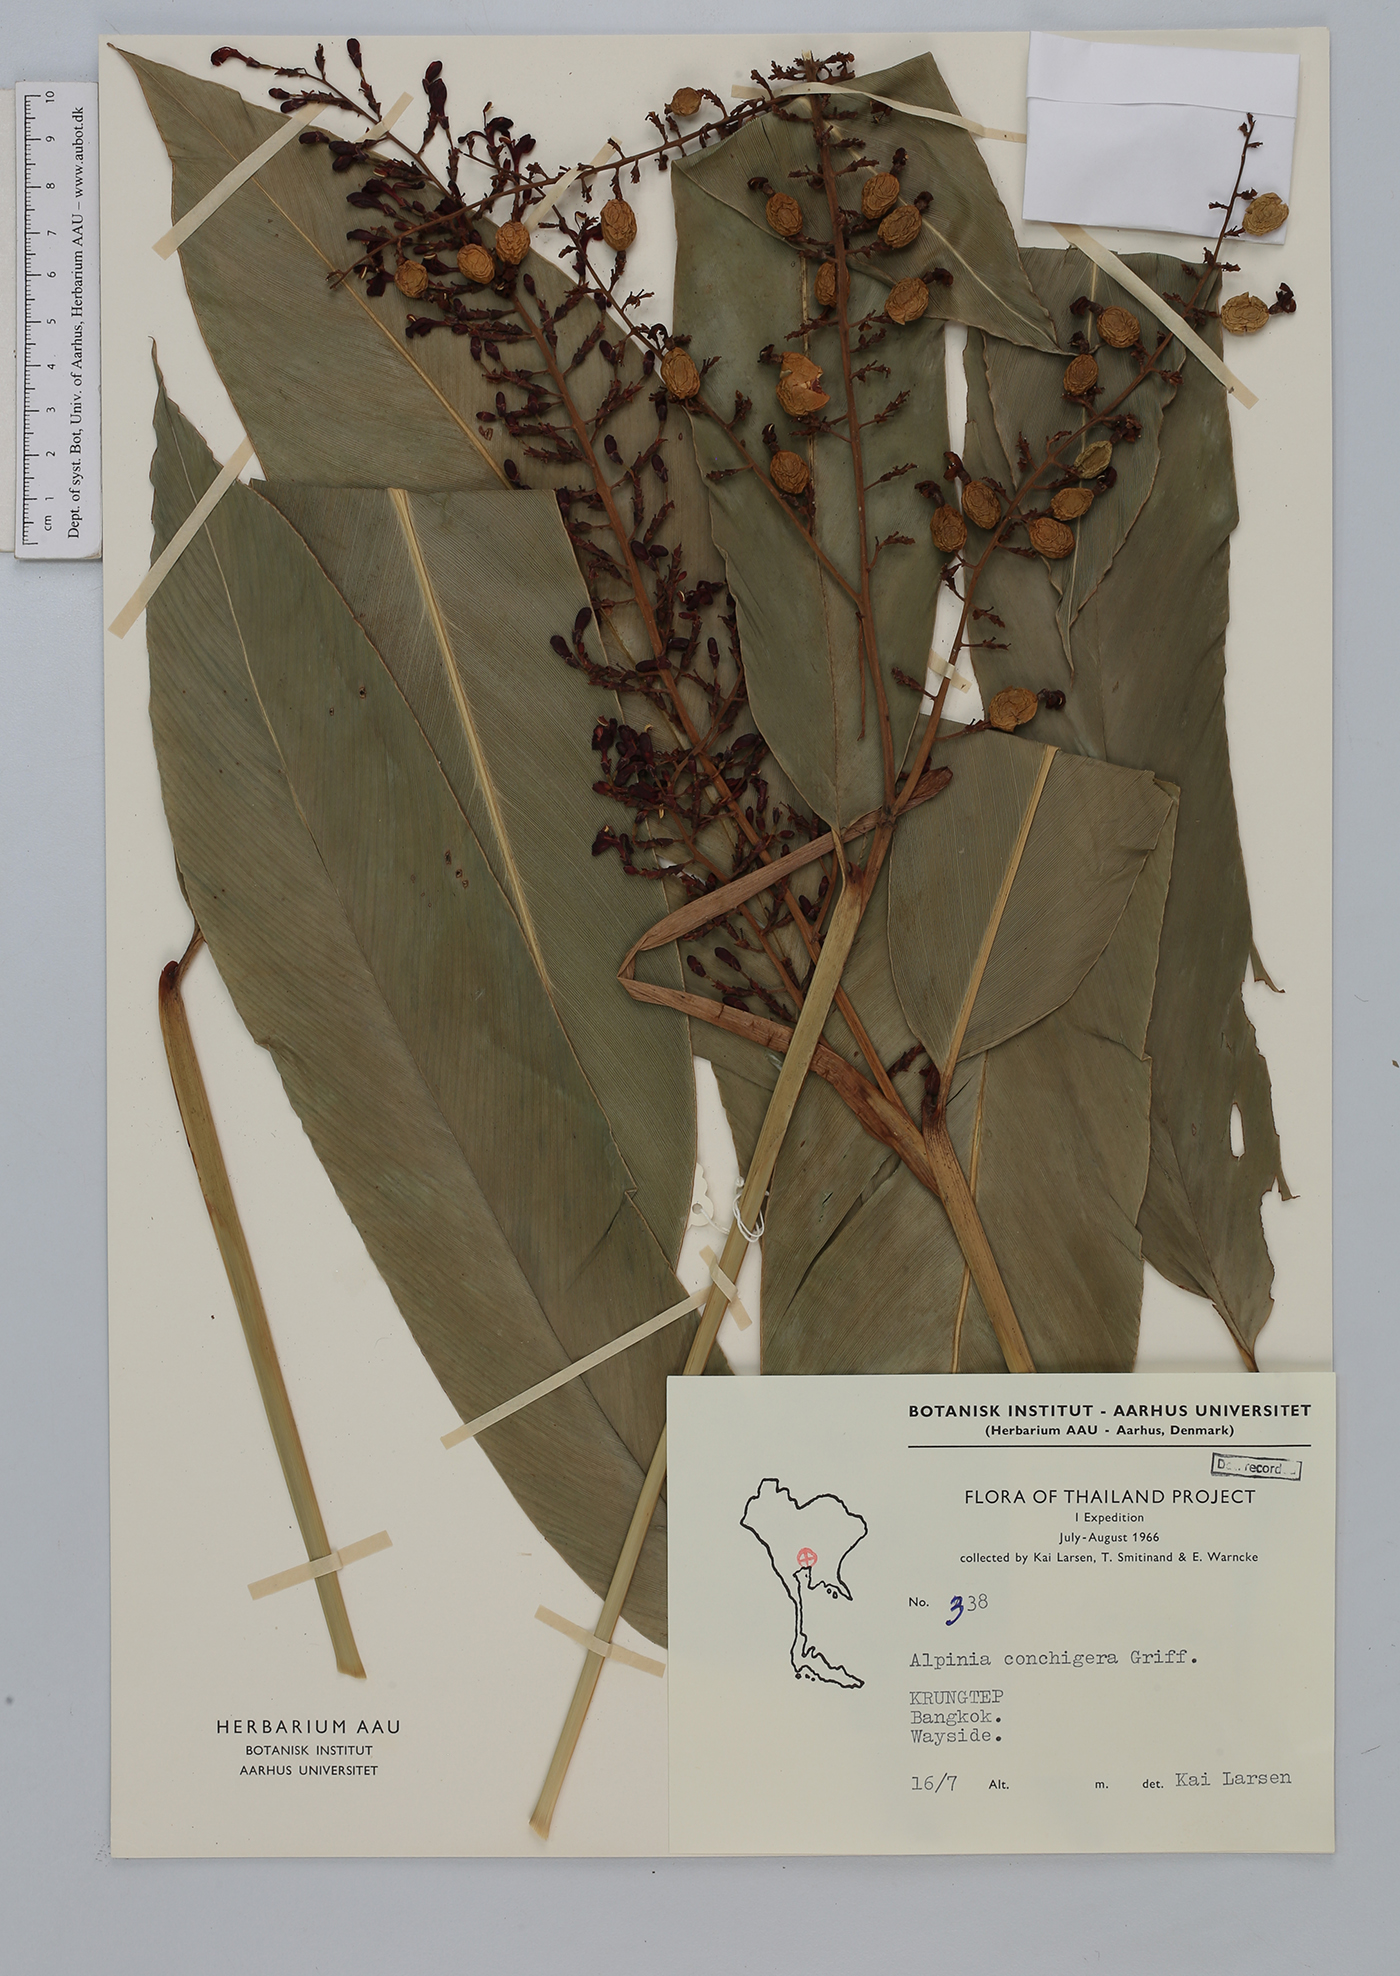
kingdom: Plantae
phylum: Tracheophyta
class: Liliopsida
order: Zingiberales
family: Zingiberaceae
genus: Alpinia
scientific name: Alpinia conchigera
